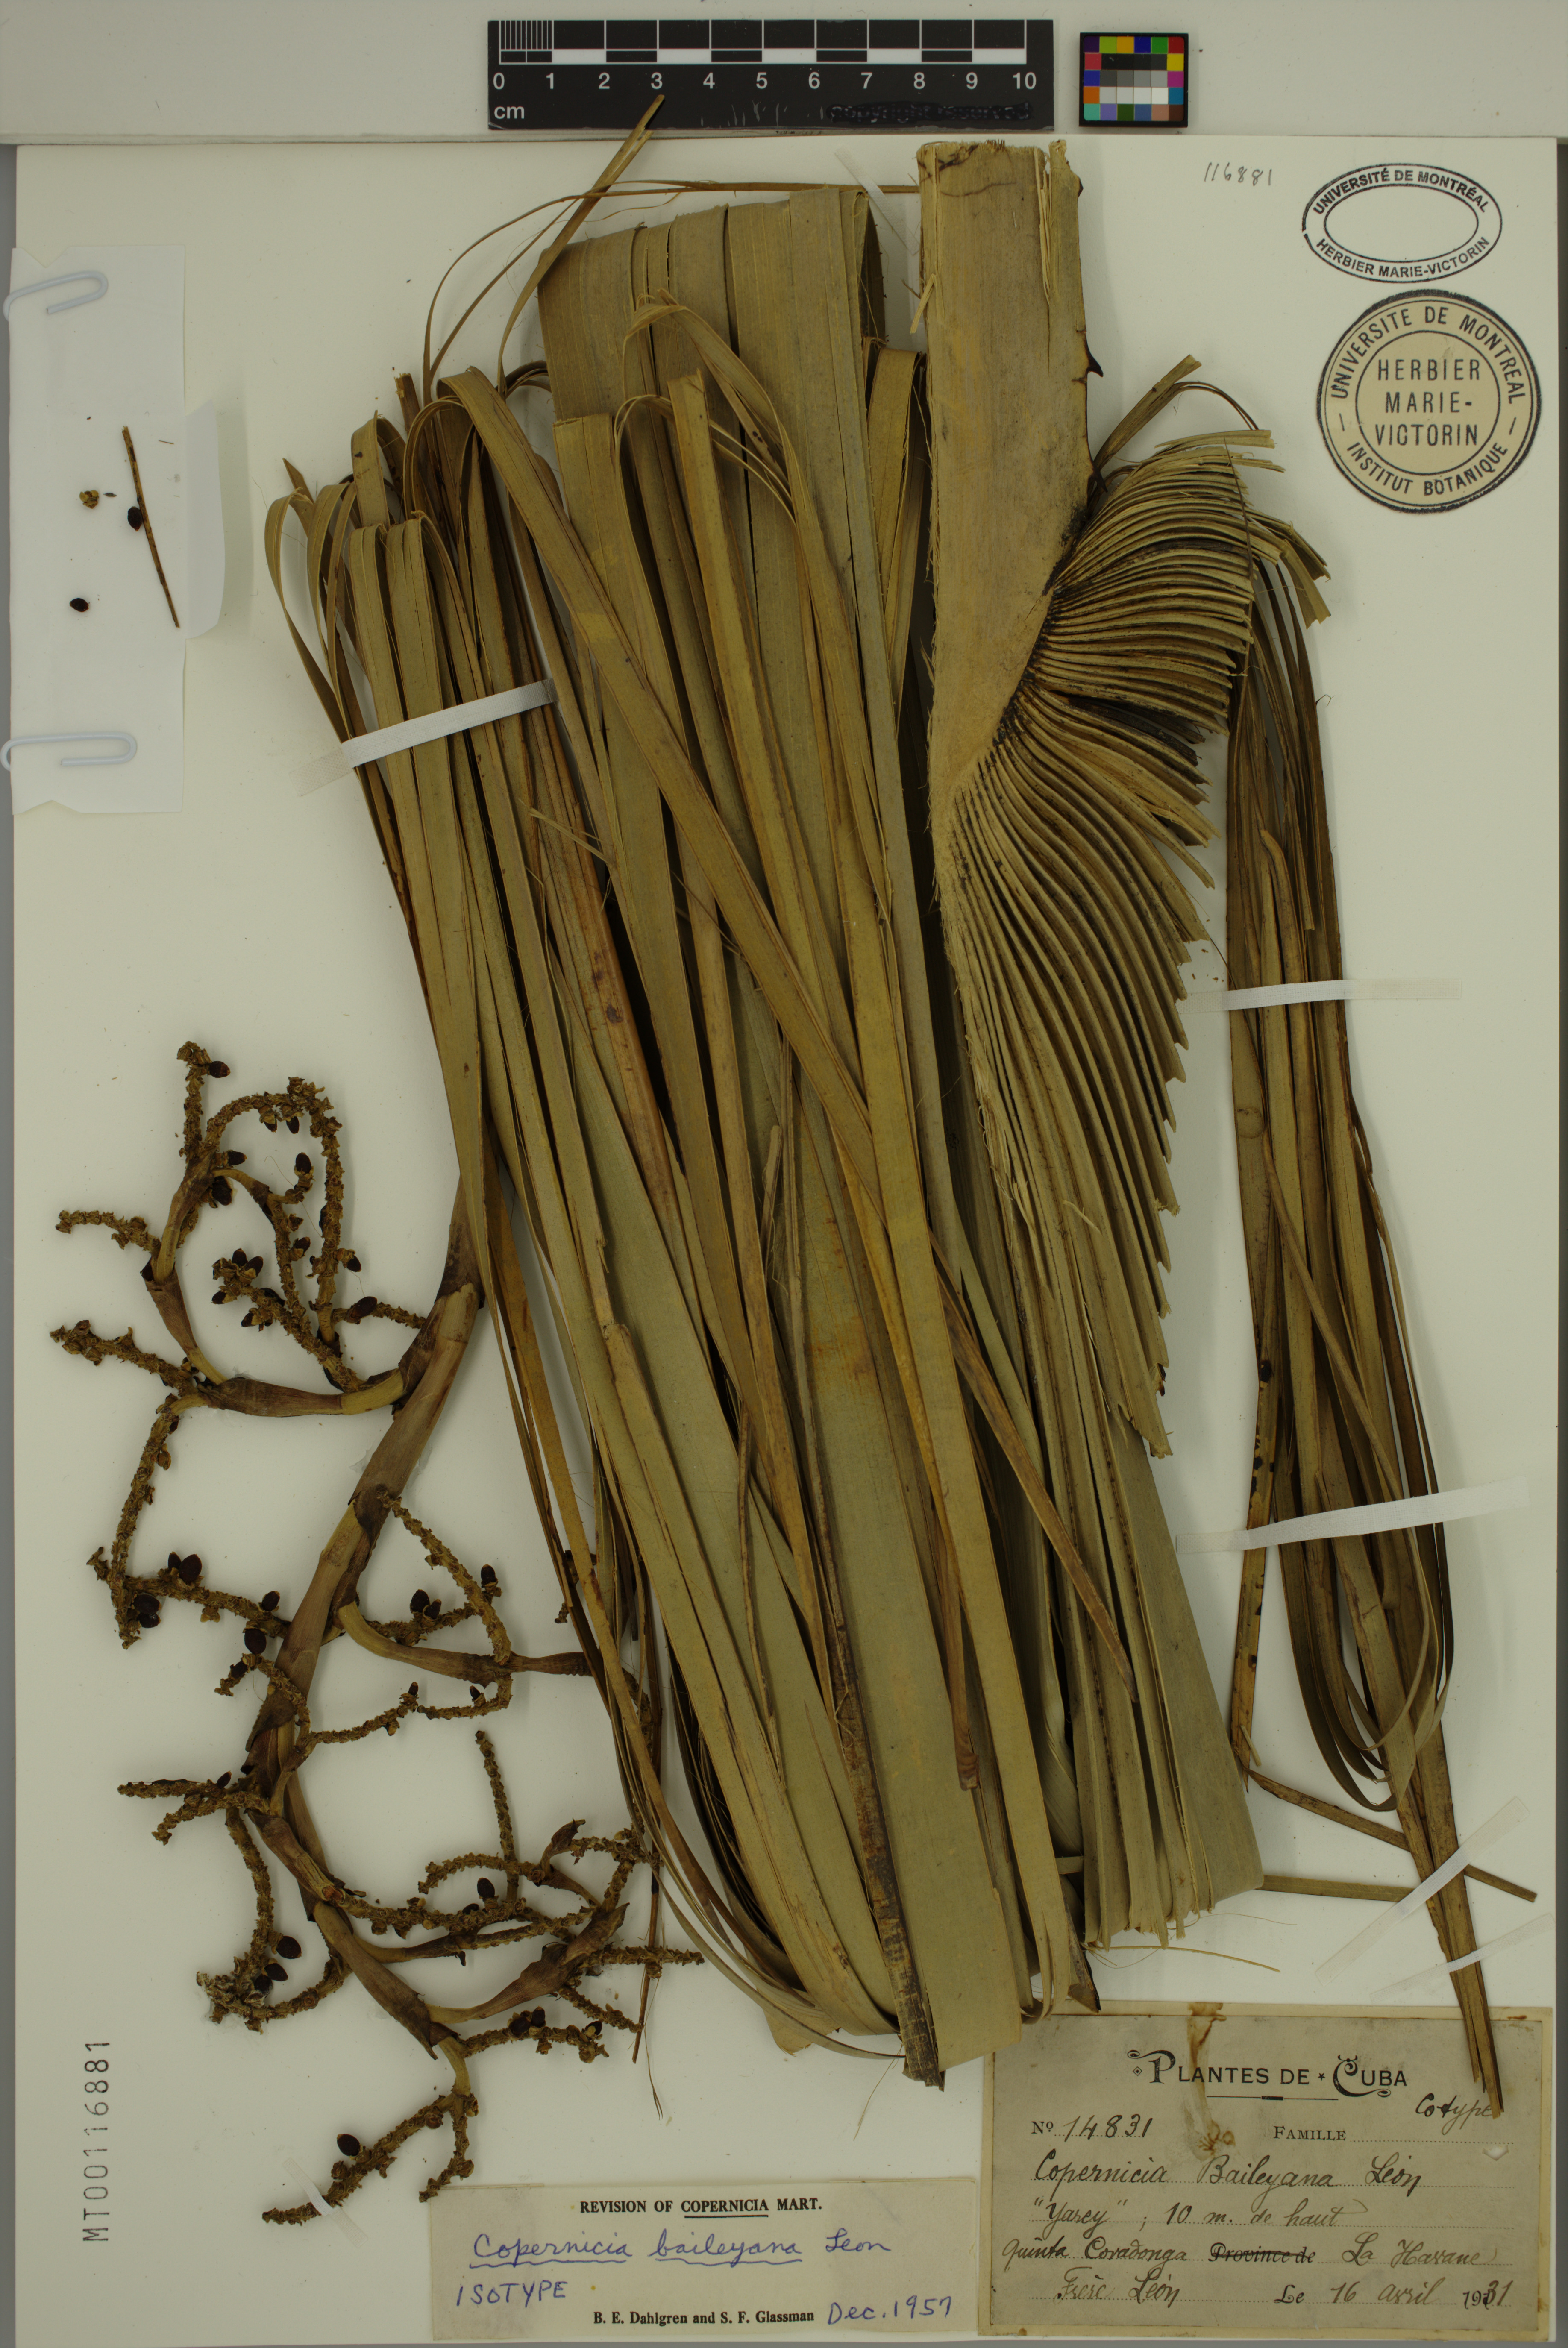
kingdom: Plantae
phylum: Tracheophyta
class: Liliopsida
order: Arecales
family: Arecaceae
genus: Copernicia
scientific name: Copernicia baileyana
